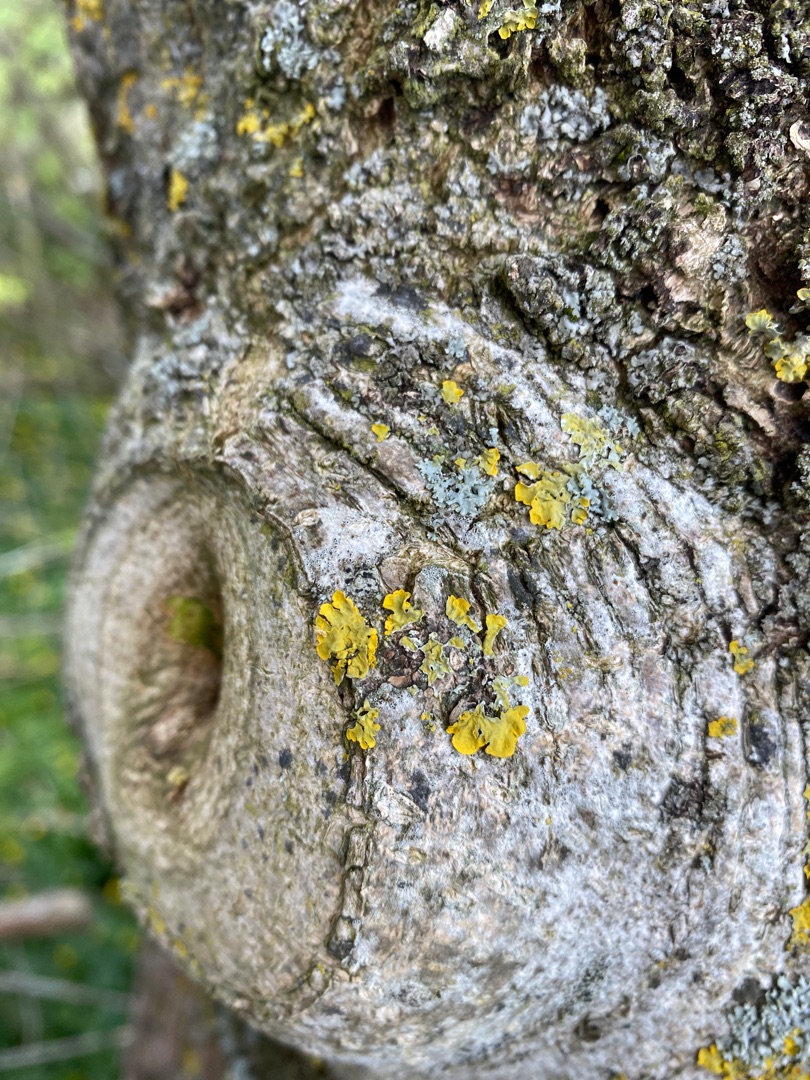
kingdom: Fungi
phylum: Ascomycota
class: Lecanoromycetes
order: Teloschistales
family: Teloschistaceae
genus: Xanthoria
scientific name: Xanthoria parietina
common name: Almindelig væggelav
